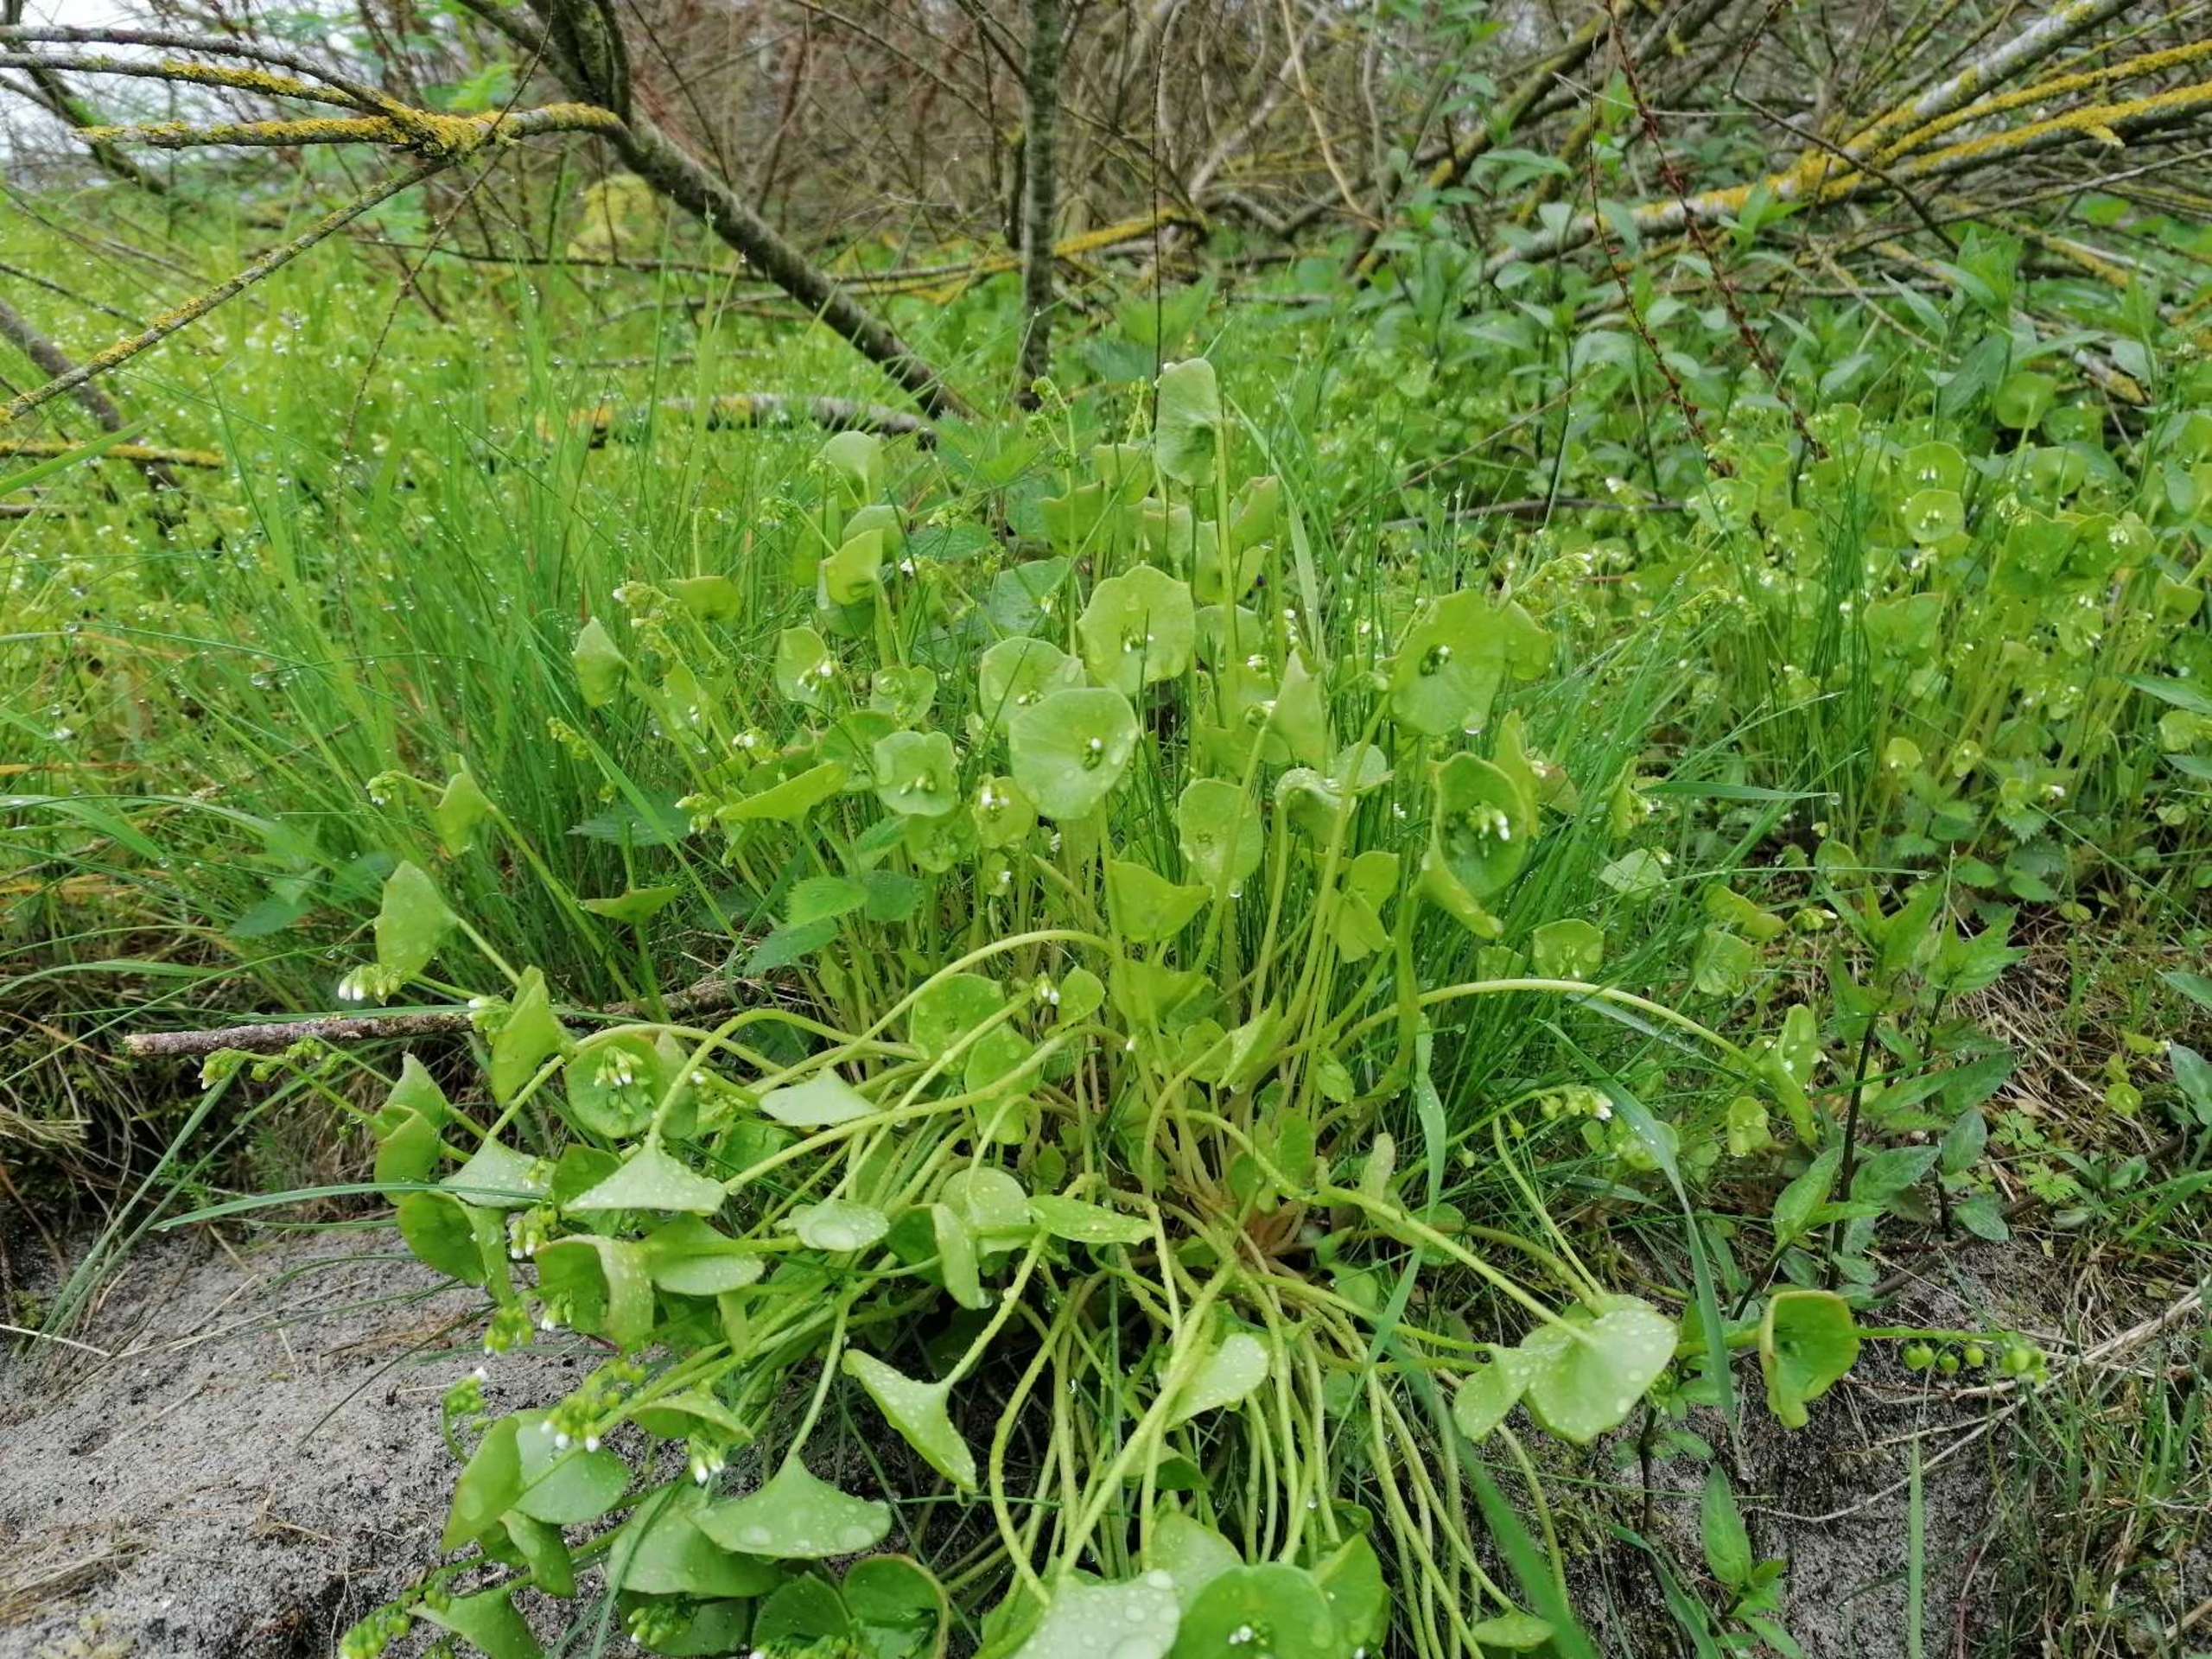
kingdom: Plantae
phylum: Tracheophyta
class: Magnoliopsida
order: Caryophyllales
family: Montiaceae
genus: Claytonia
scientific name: Claytonia perfoliata
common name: Spiselig vinterportulak
